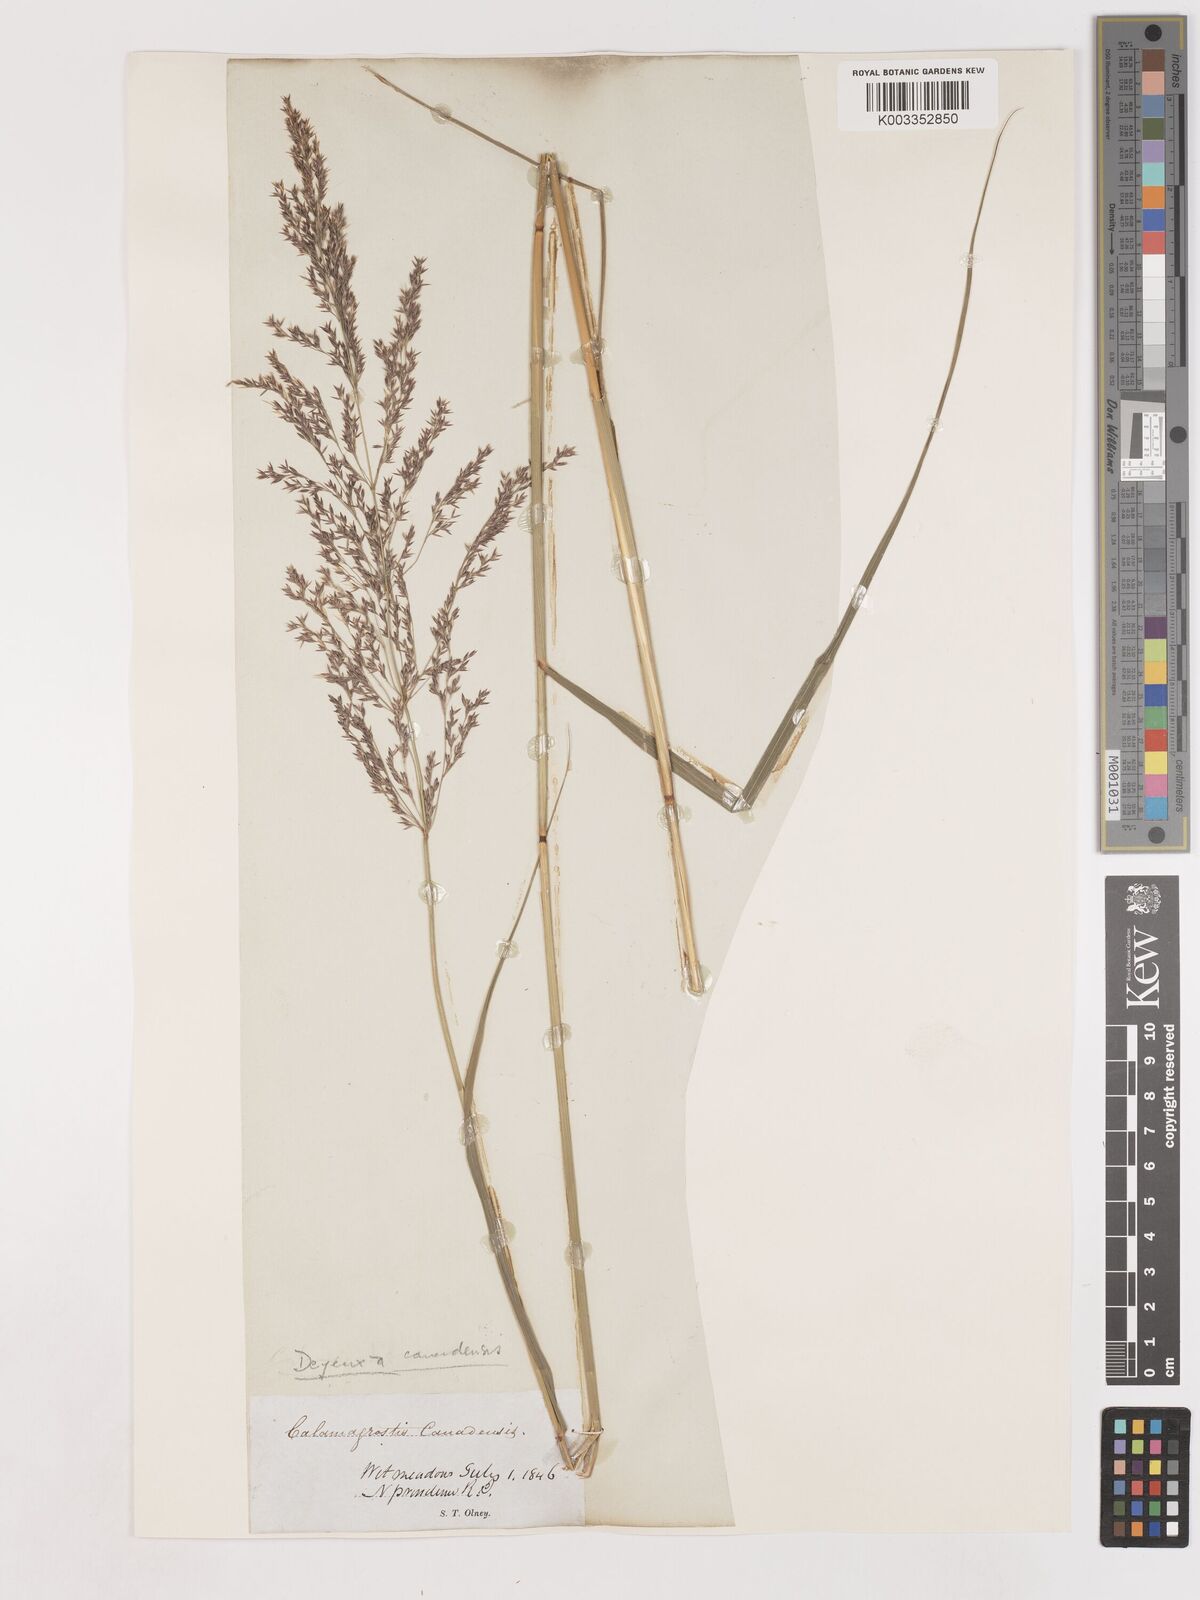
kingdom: Plantae
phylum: Tracheophyta
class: Liliopsida
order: Poales
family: Poaceae
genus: Calamagrostis
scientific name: Calamagrostis canadensis
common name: Canada bluejoint
